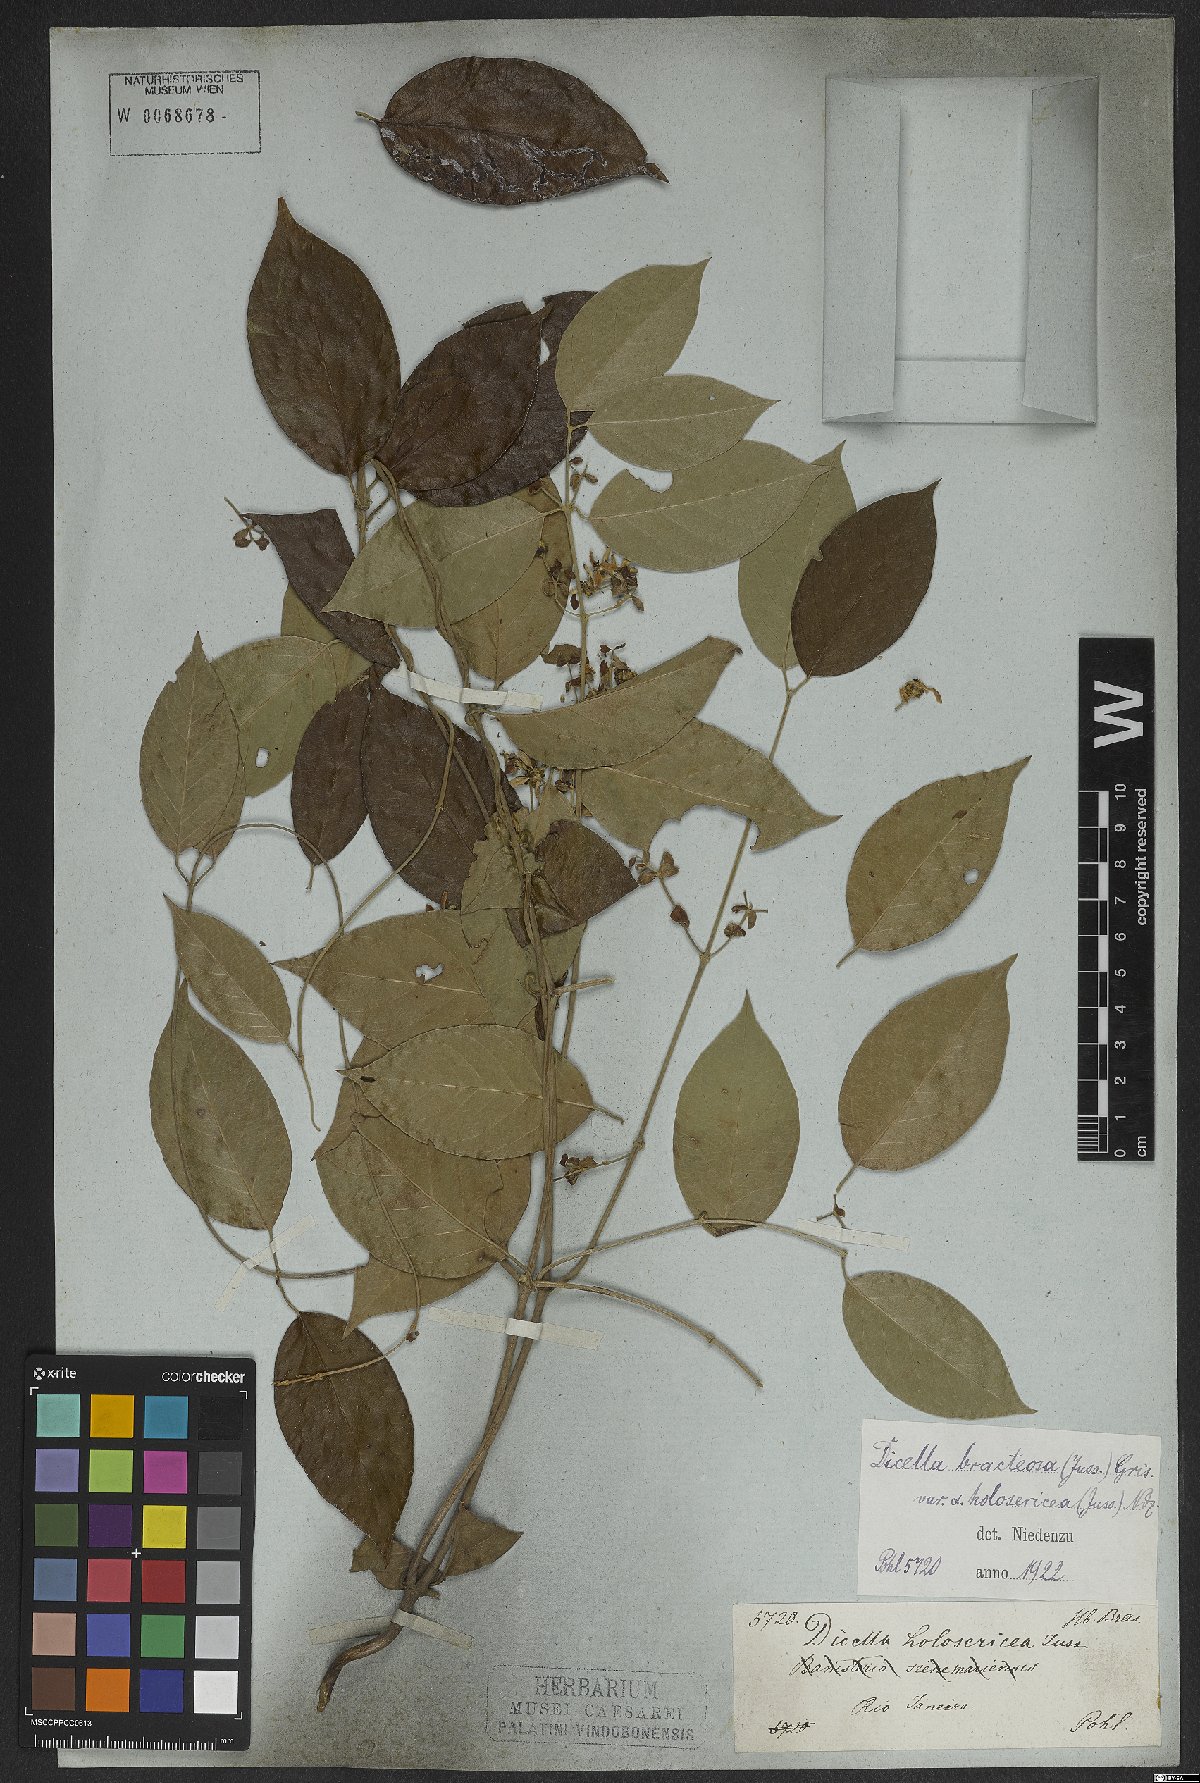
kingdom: Plantae
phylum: Tracheophyta
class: Magnoliopsida
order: Malpighiales
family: Malpighiaceae
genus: Dicella
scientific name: Dicella bracteosa
